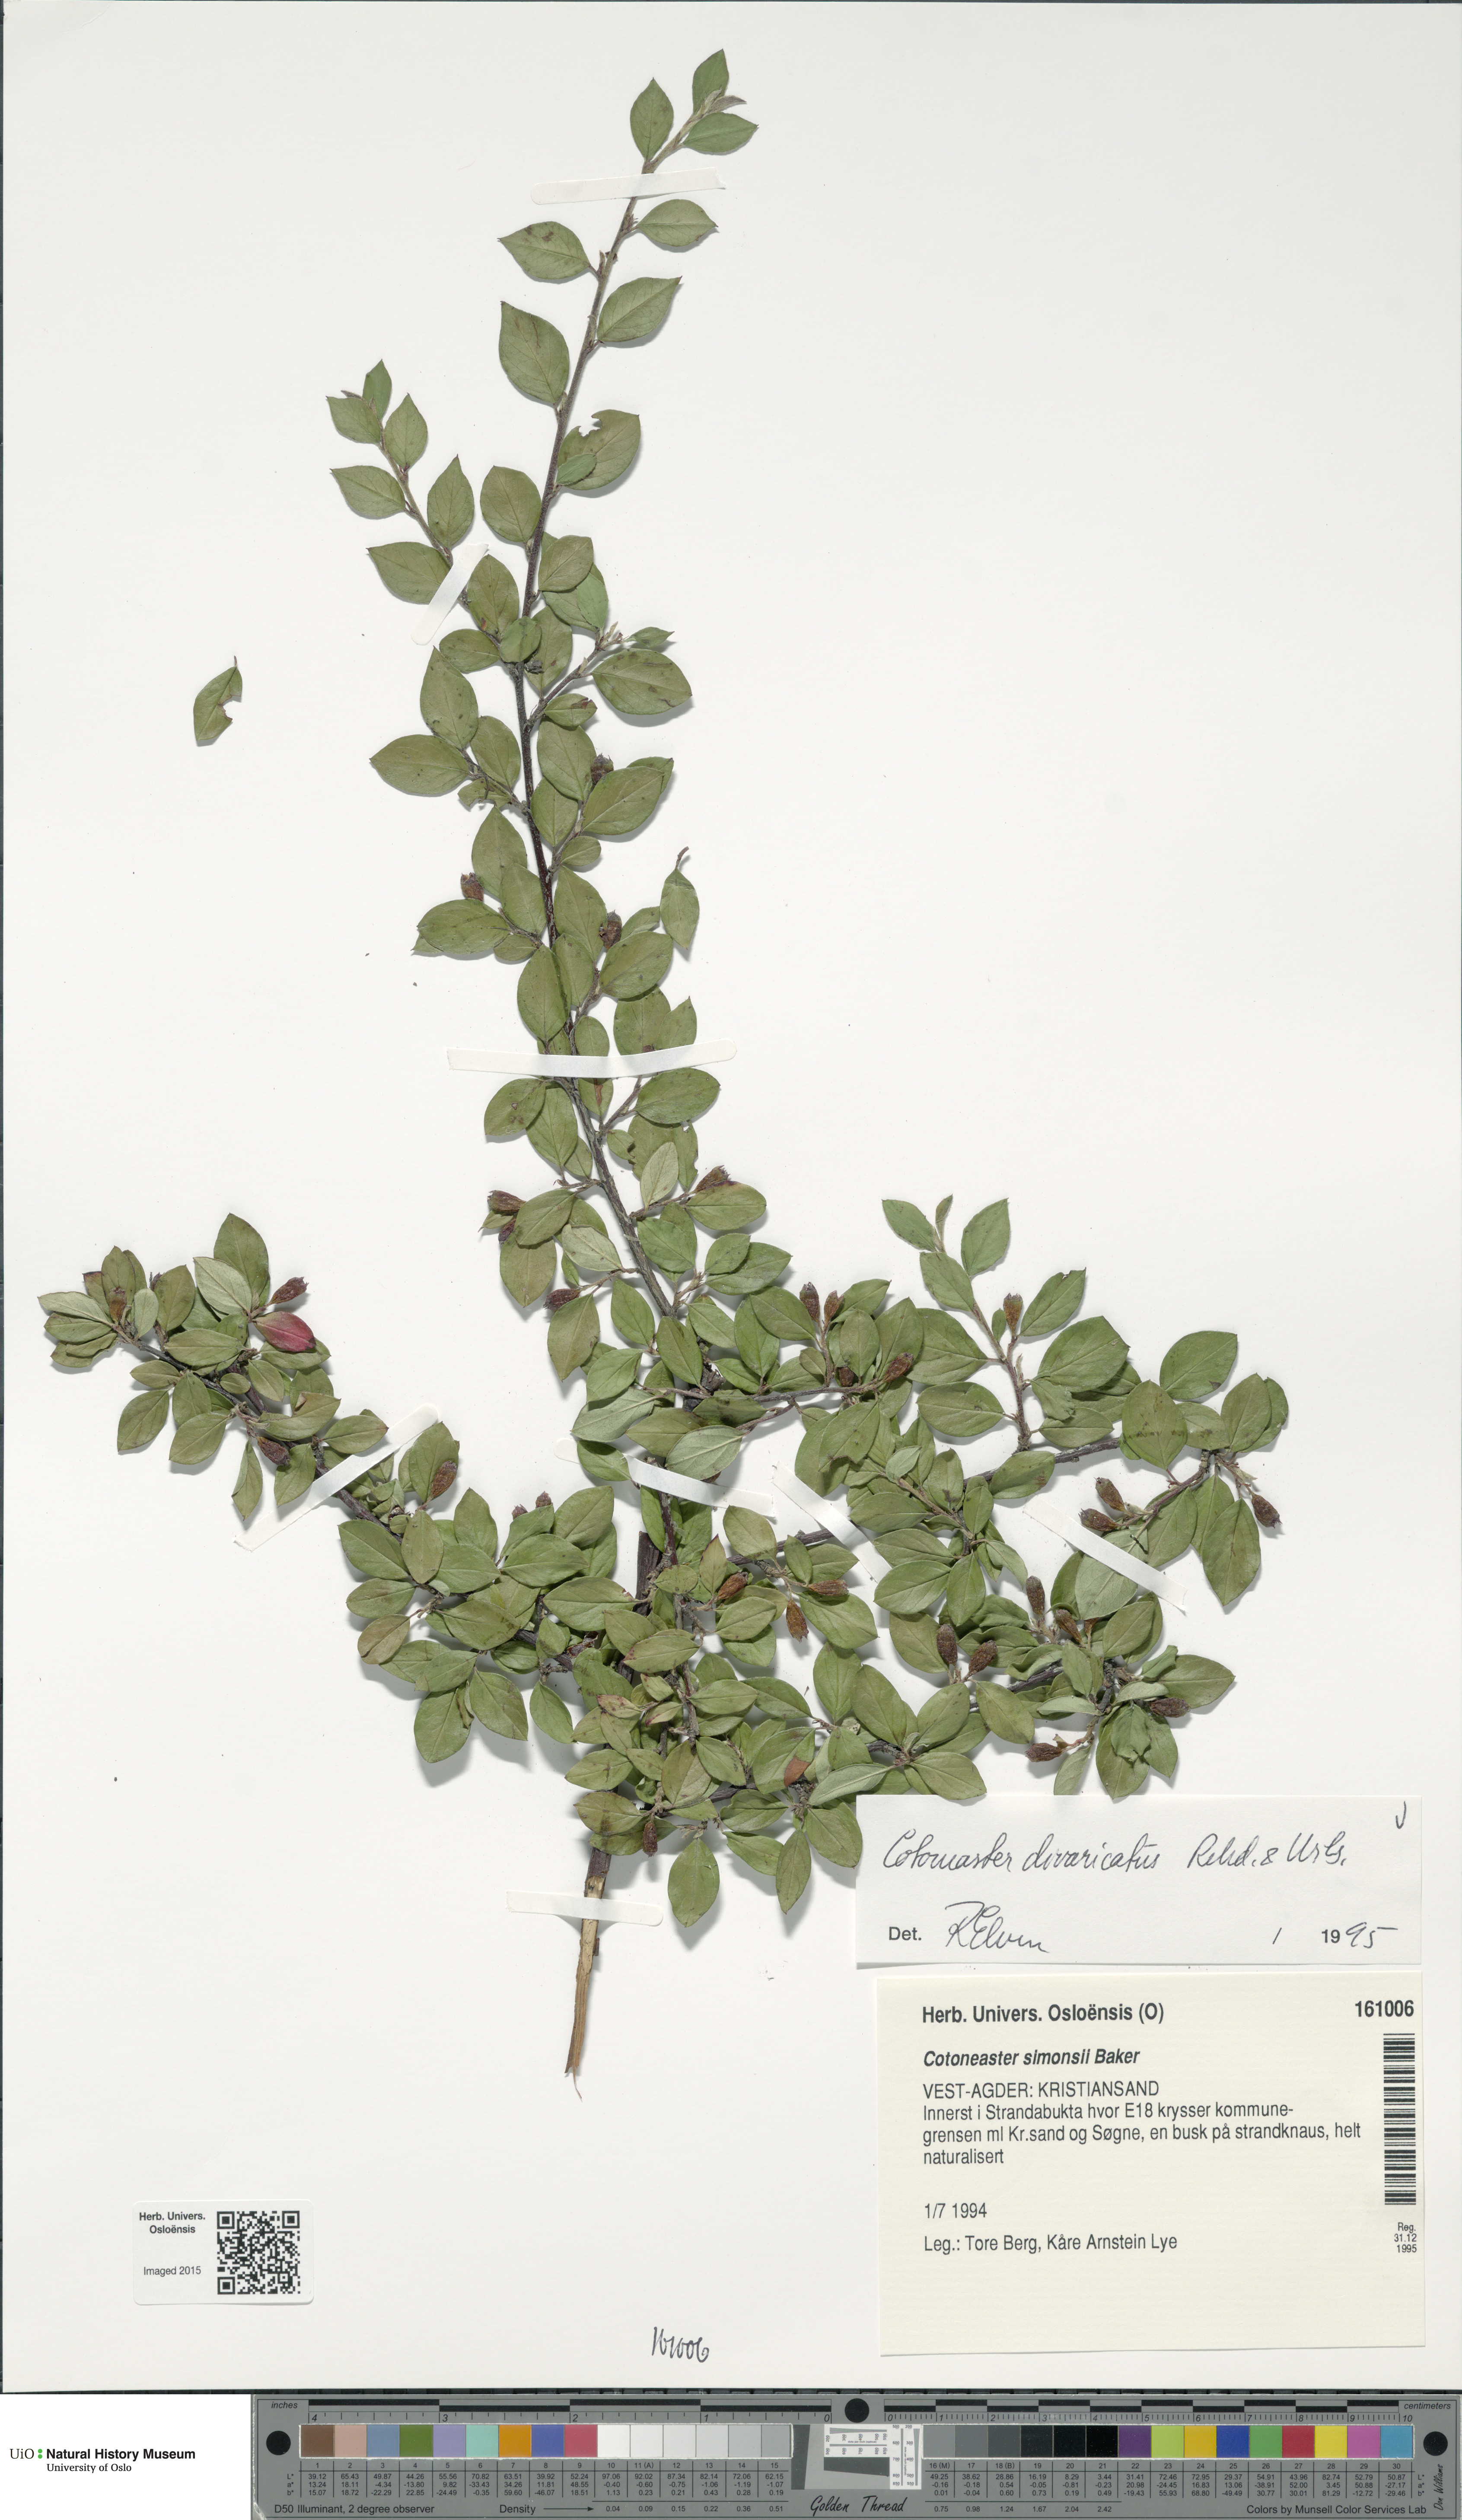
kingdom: Plantae
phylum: Tracheophyta
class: Magnoliopsida
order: Rosales
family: Rosaceae
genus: Cotoneaster
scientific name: Cotoneaster divaricatus
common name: Spreading cotoneaster
